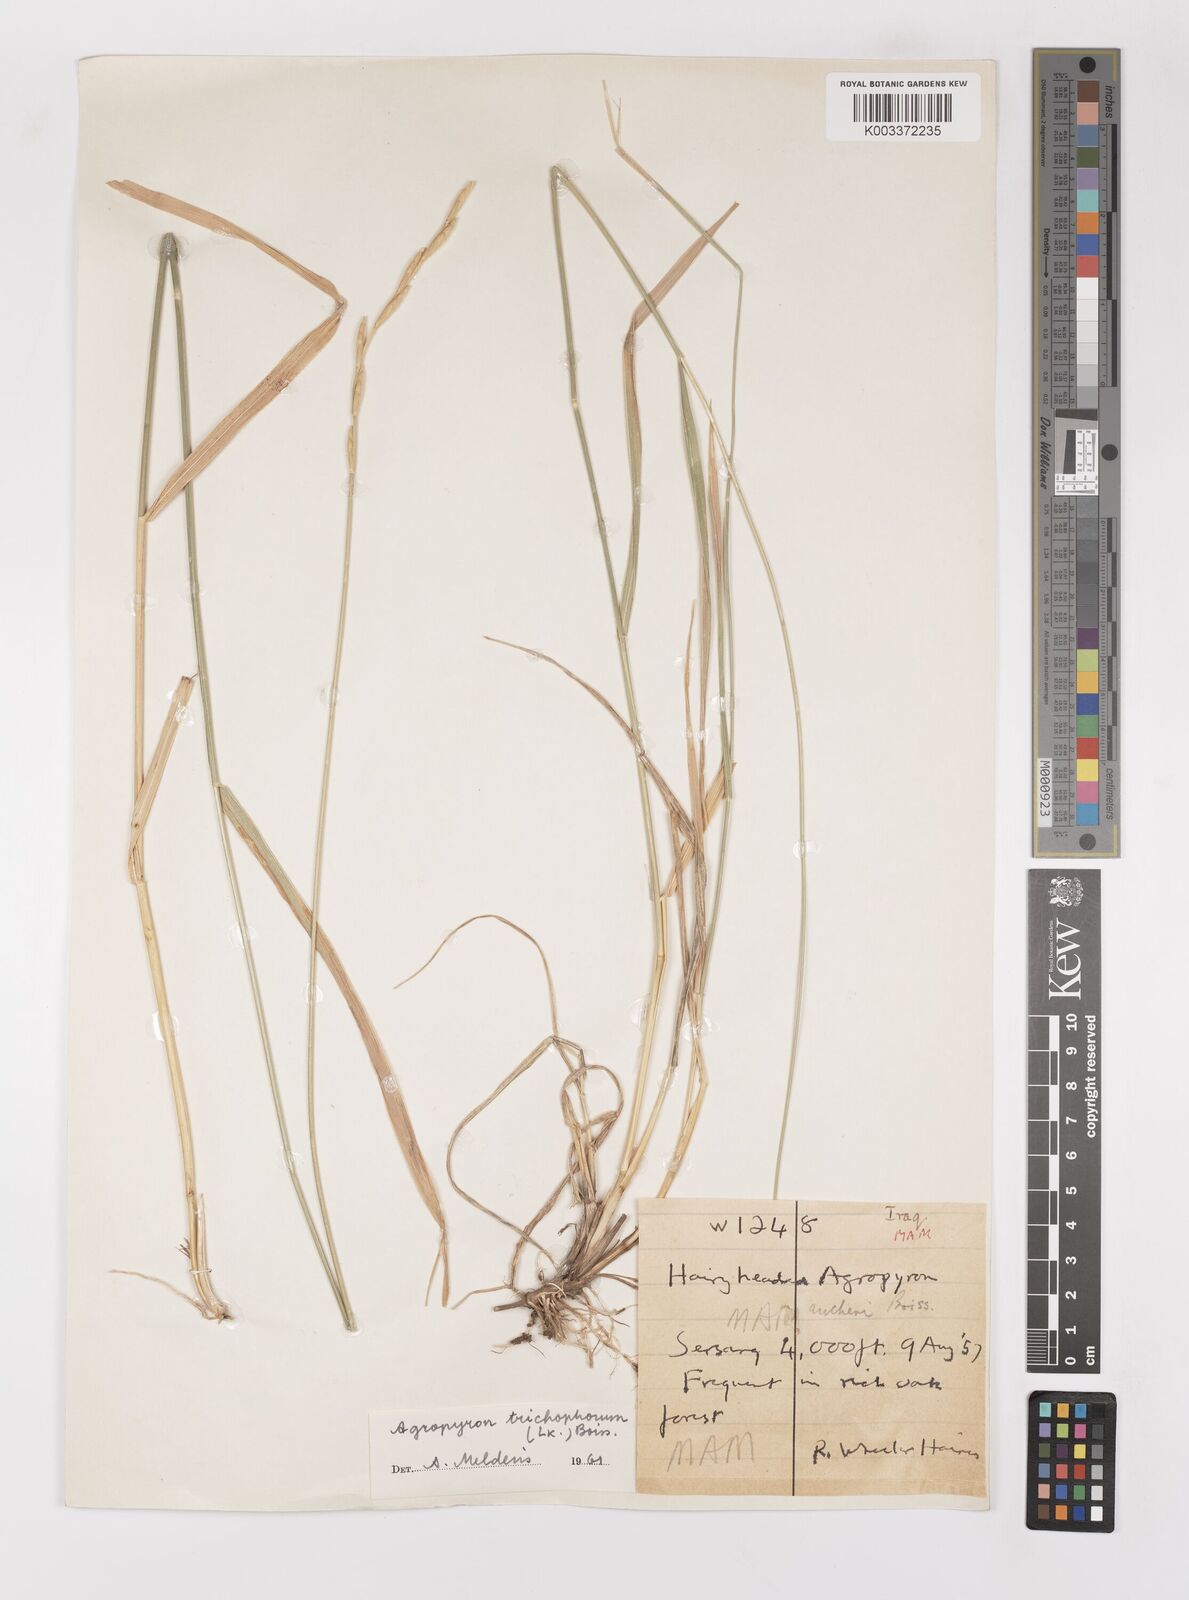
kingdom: Plantae
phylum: Tracheophyta
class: Liliopsida
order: Poales
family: Poaceae
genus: Thinopyrum
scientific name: Thinopyrum intermedium
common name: Intermediate wheatgrass
